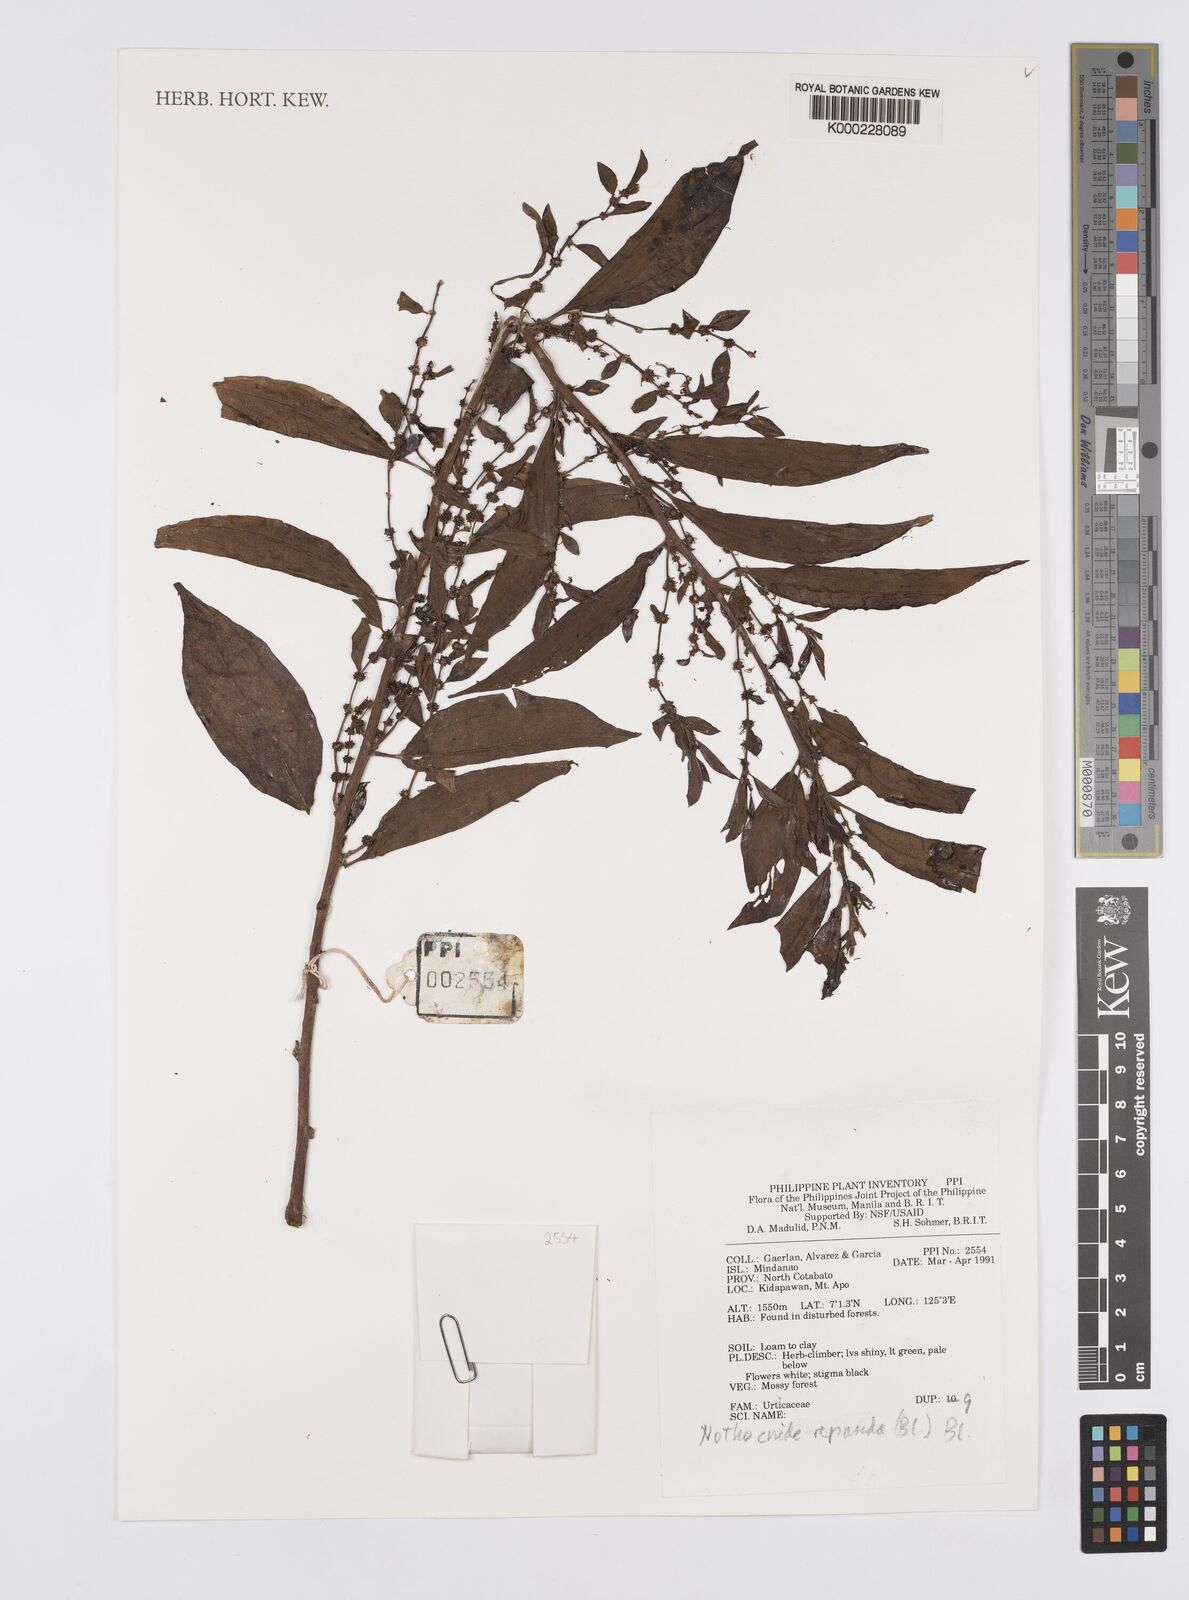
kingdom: Plantae
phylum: Tracheophyta
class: Magnoliopsida
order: Rosales
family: Urticaceae
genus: Nothocnide
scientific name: Nothocnide repanda
